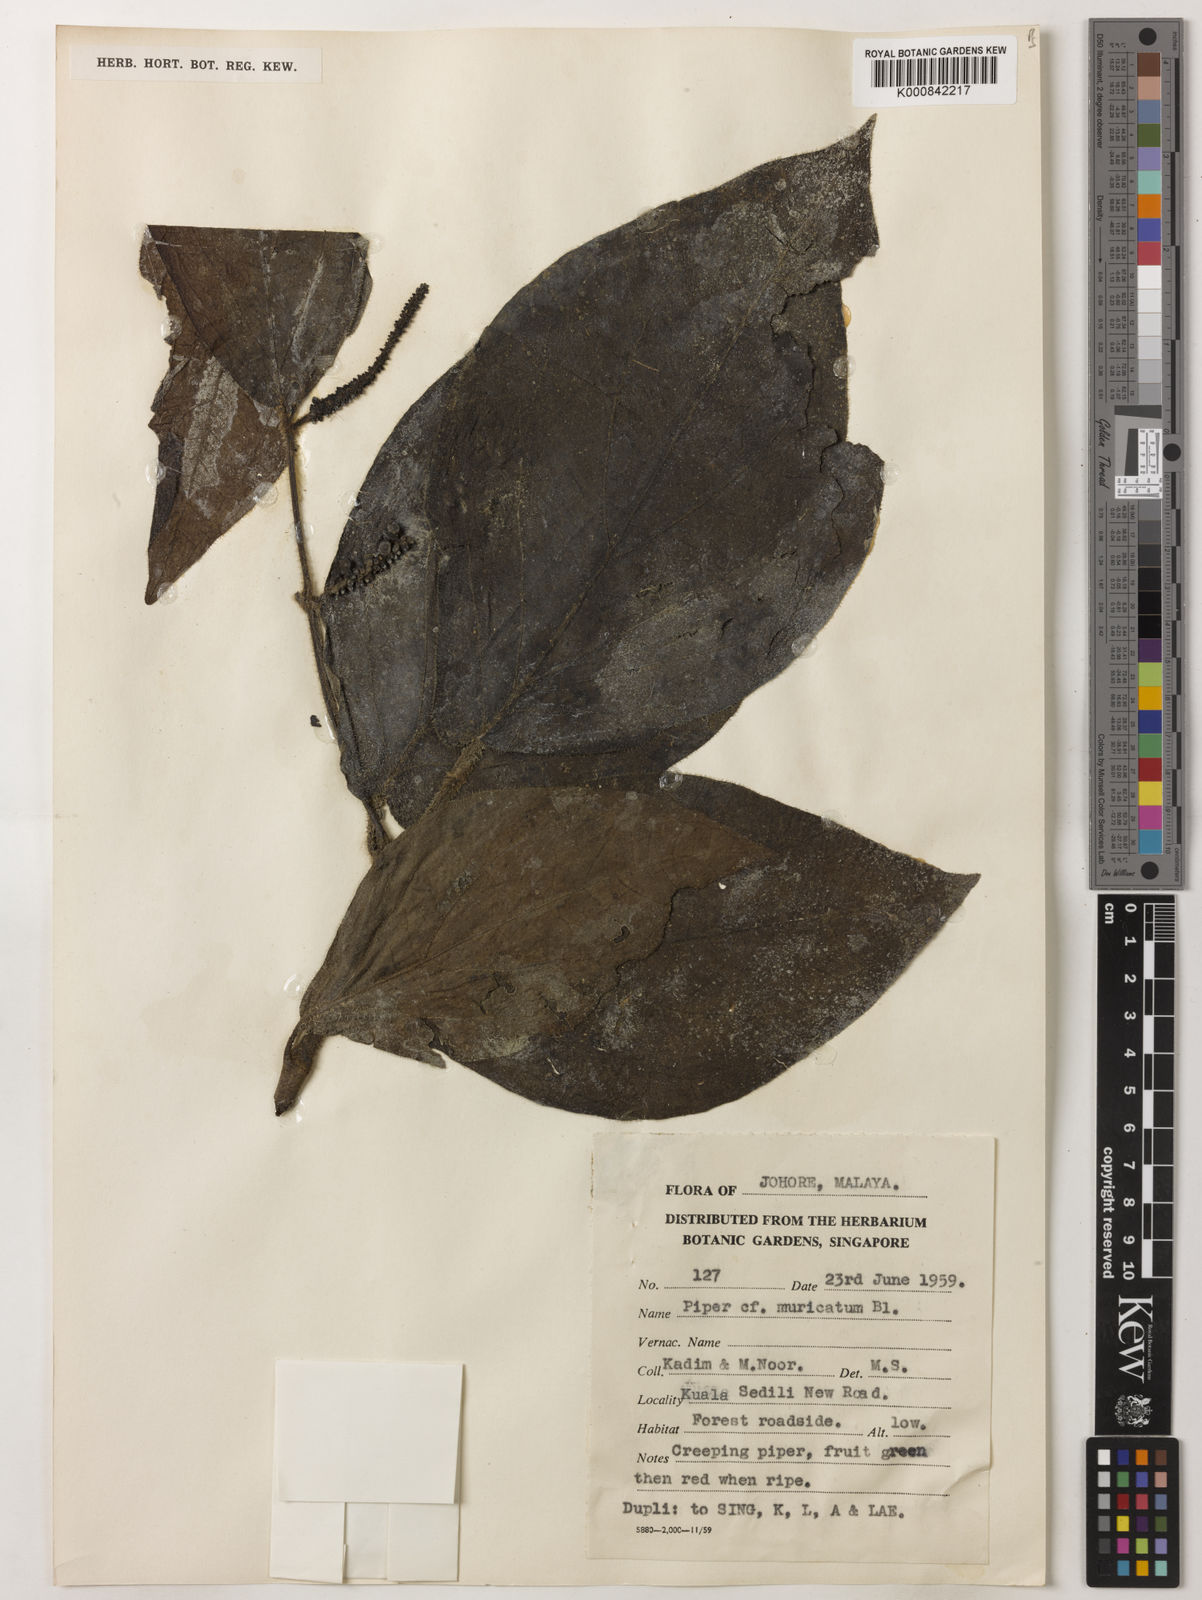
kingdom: Plantae
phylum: Tracheophyta
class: Magnoliopsida
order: Piperales
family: Piperaceae
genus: Piper
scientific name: Piper muricatum
